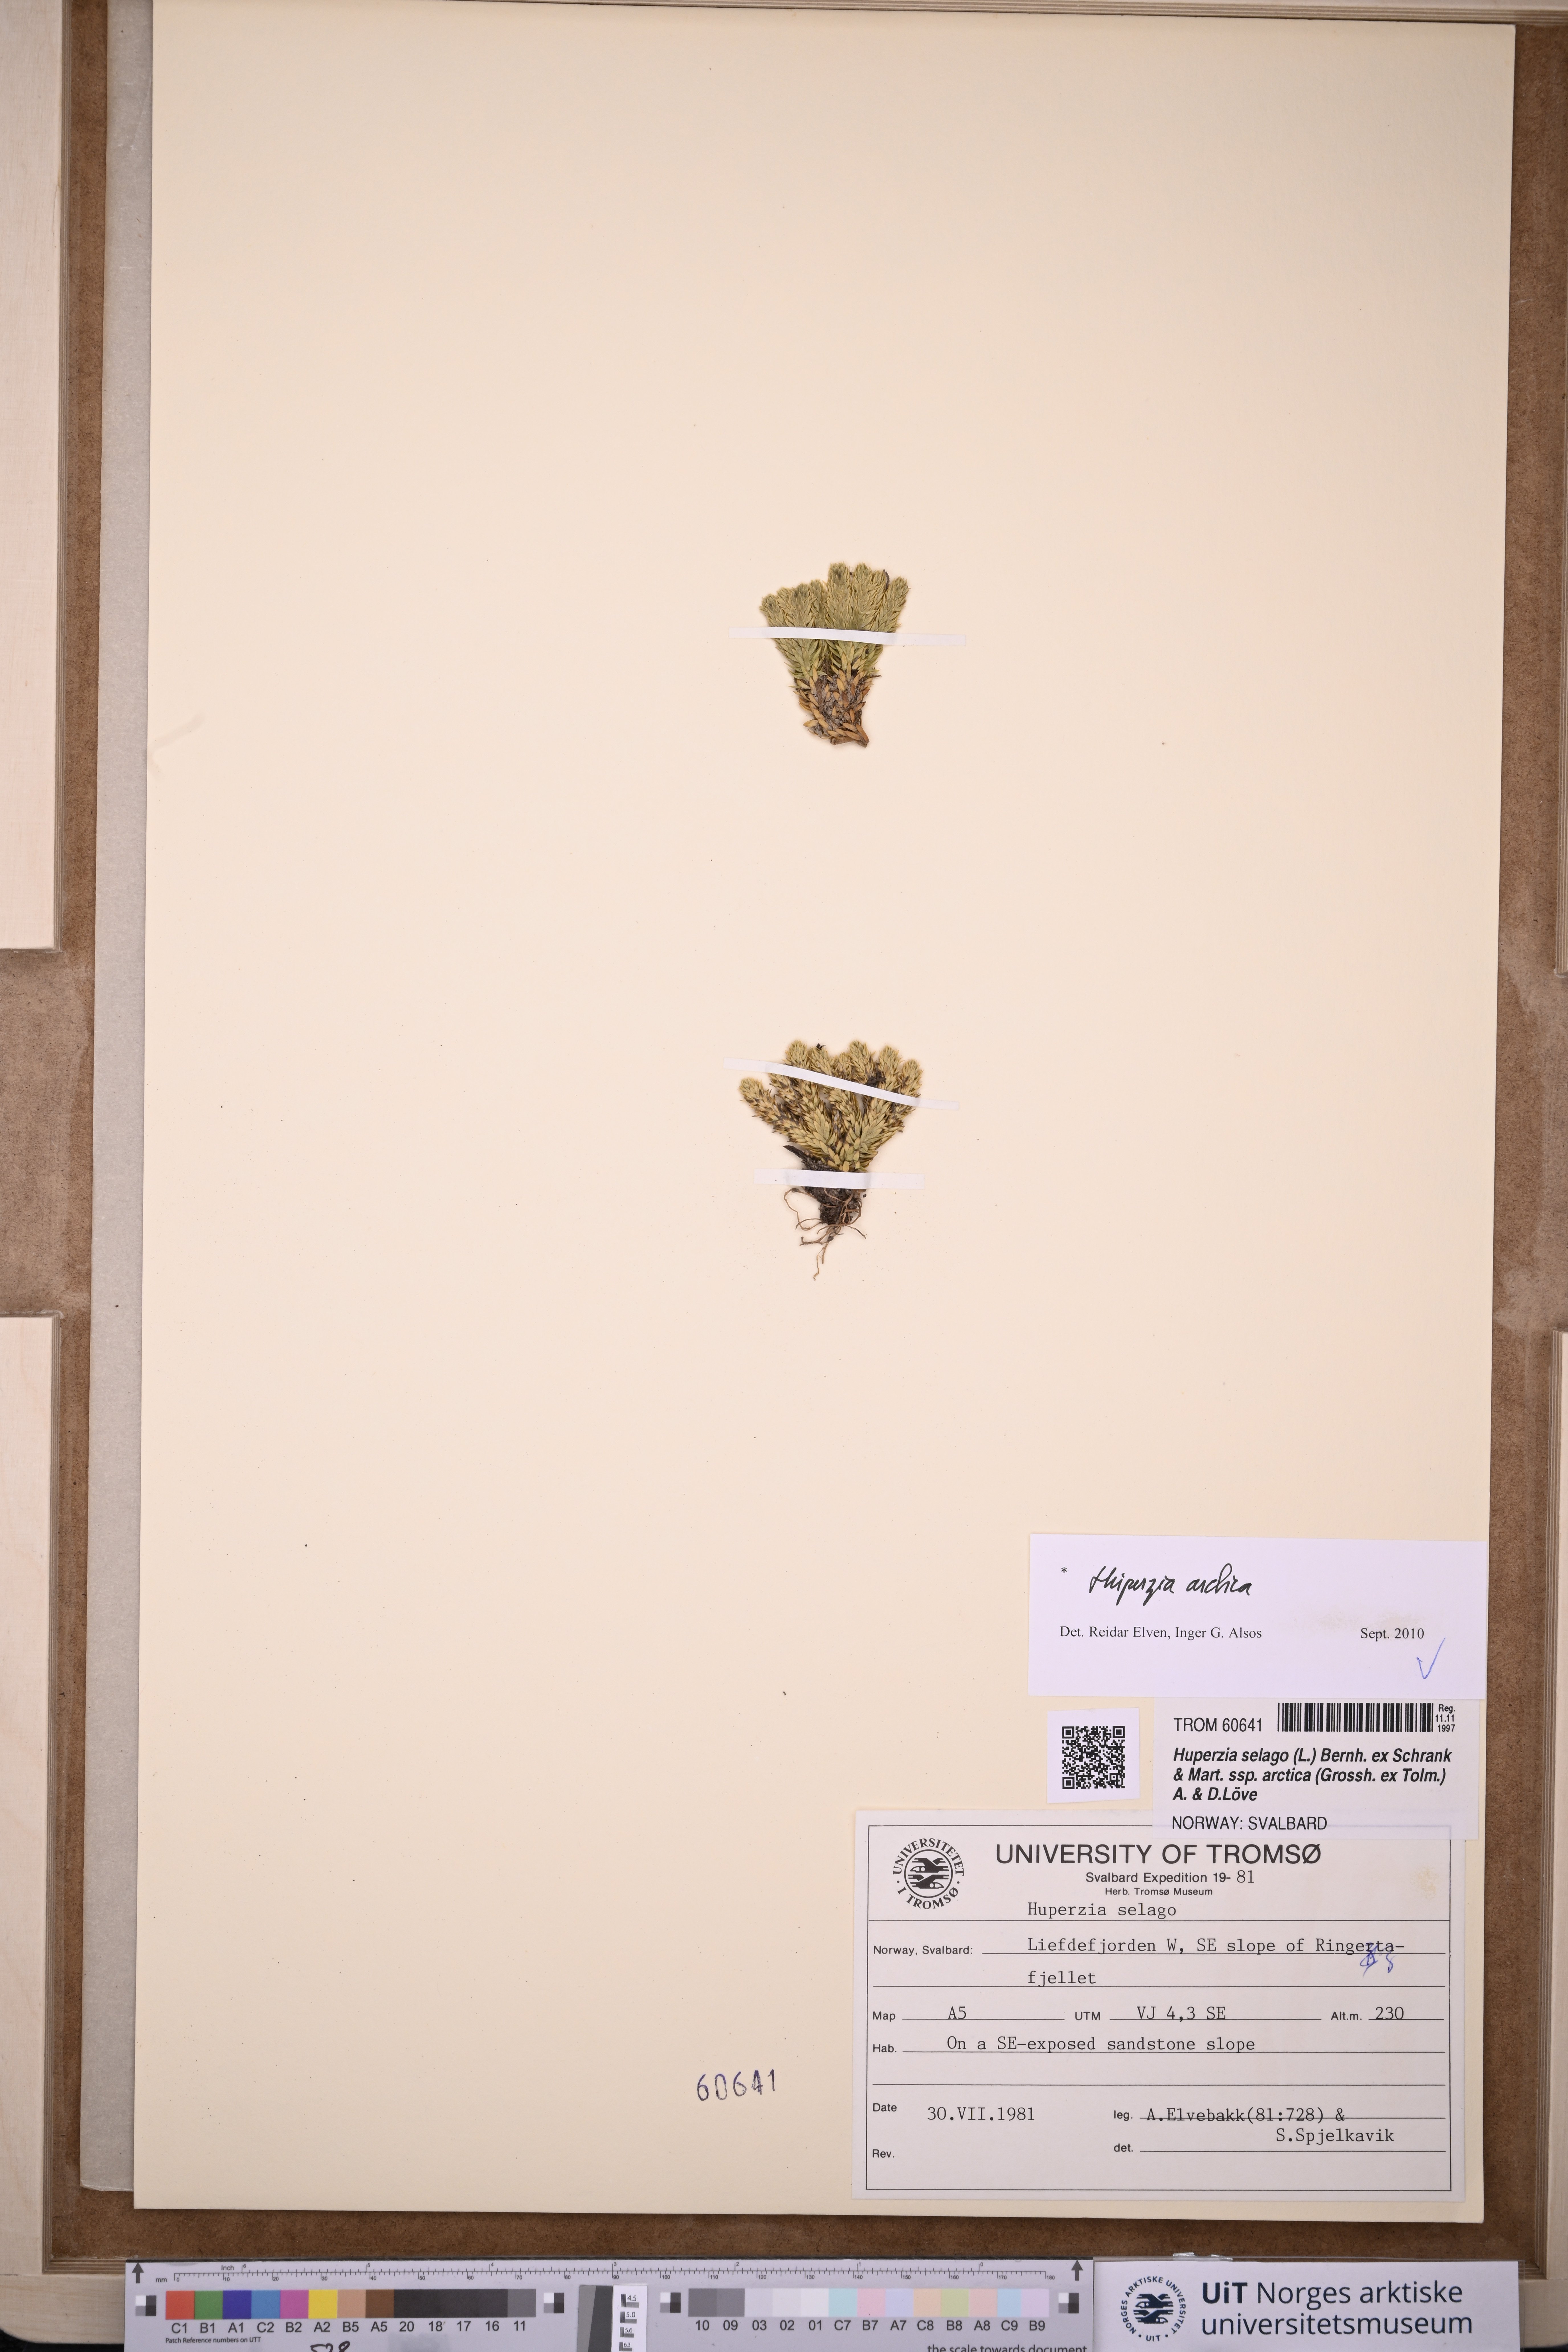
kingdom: Plantae
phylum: Tracheophyta
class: Lycopodiopsida
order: Lycopodiales
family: Lycopodiaceae
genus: Huperzia
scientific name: Huperzia selago
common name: Northern firmoss
